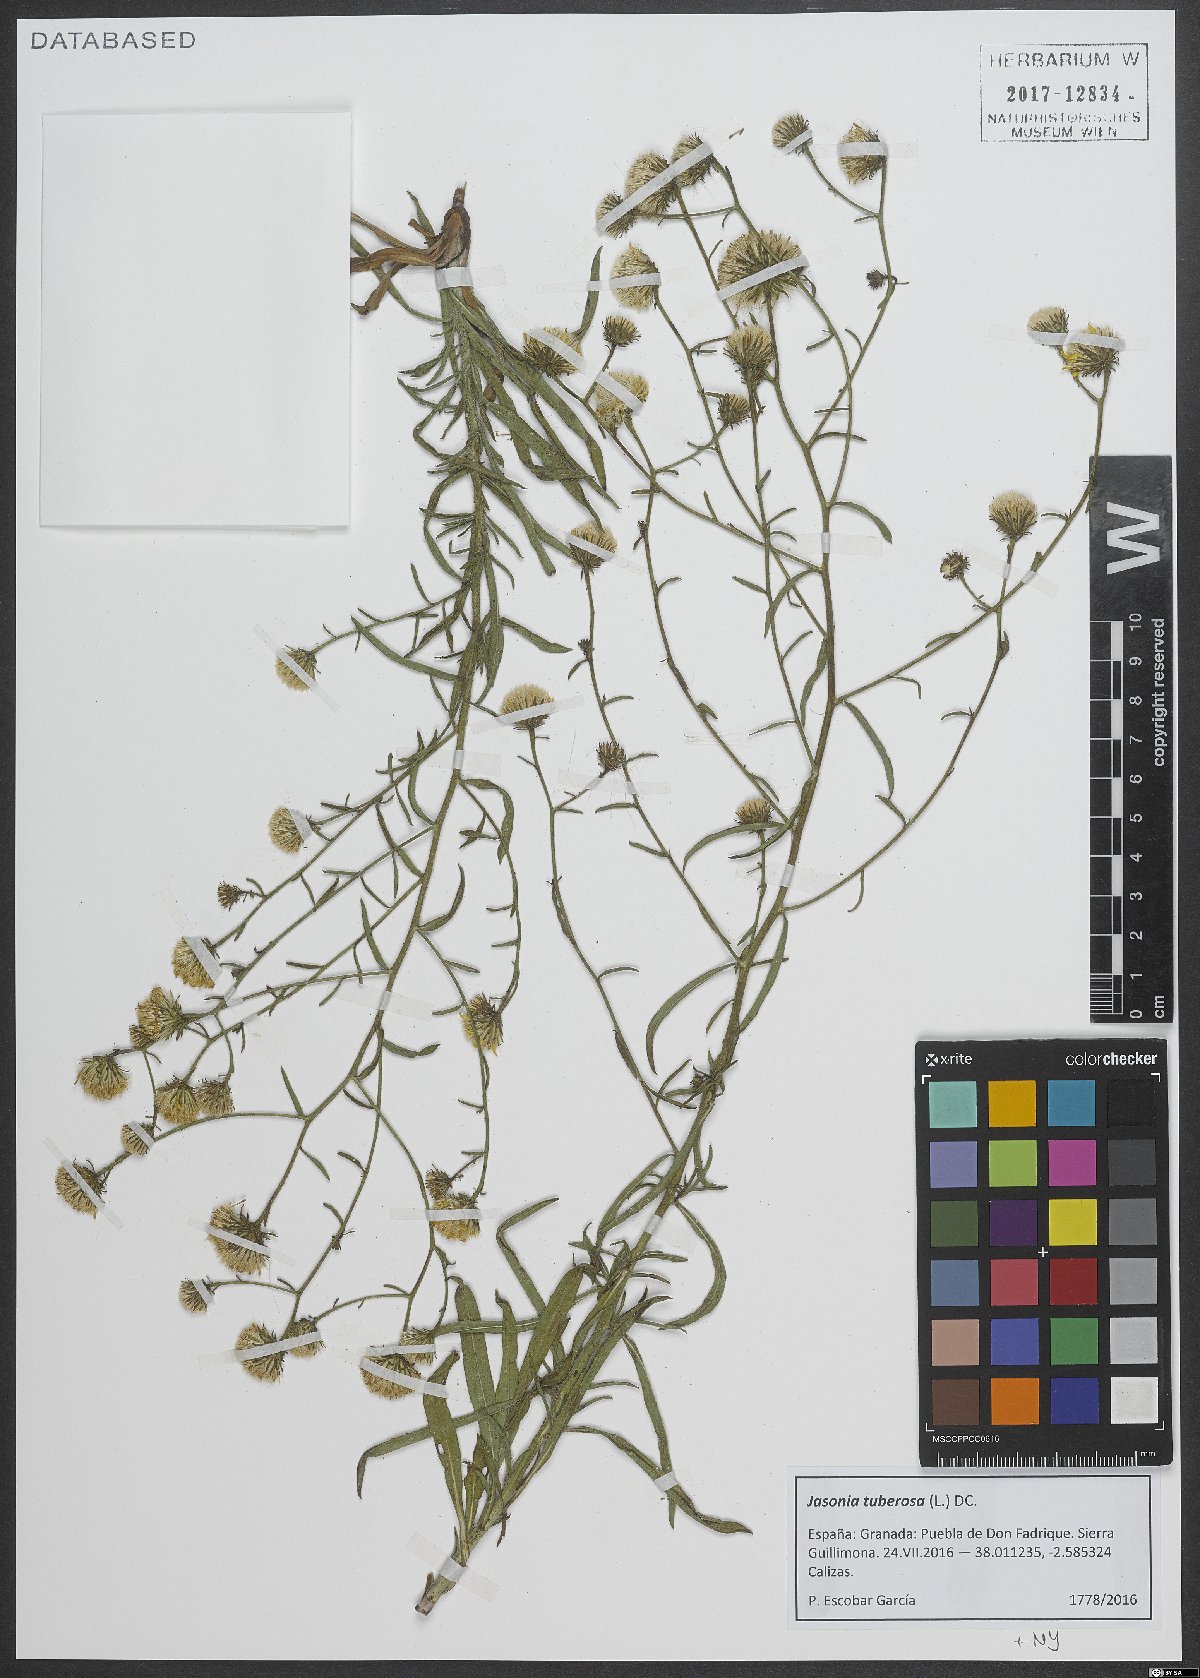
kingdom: Plantae
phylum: Tracheophyta
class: Magnoliopsida
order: Asterales
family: Asteraceae
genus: Jasonia
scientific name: Jasonia tuberosa
